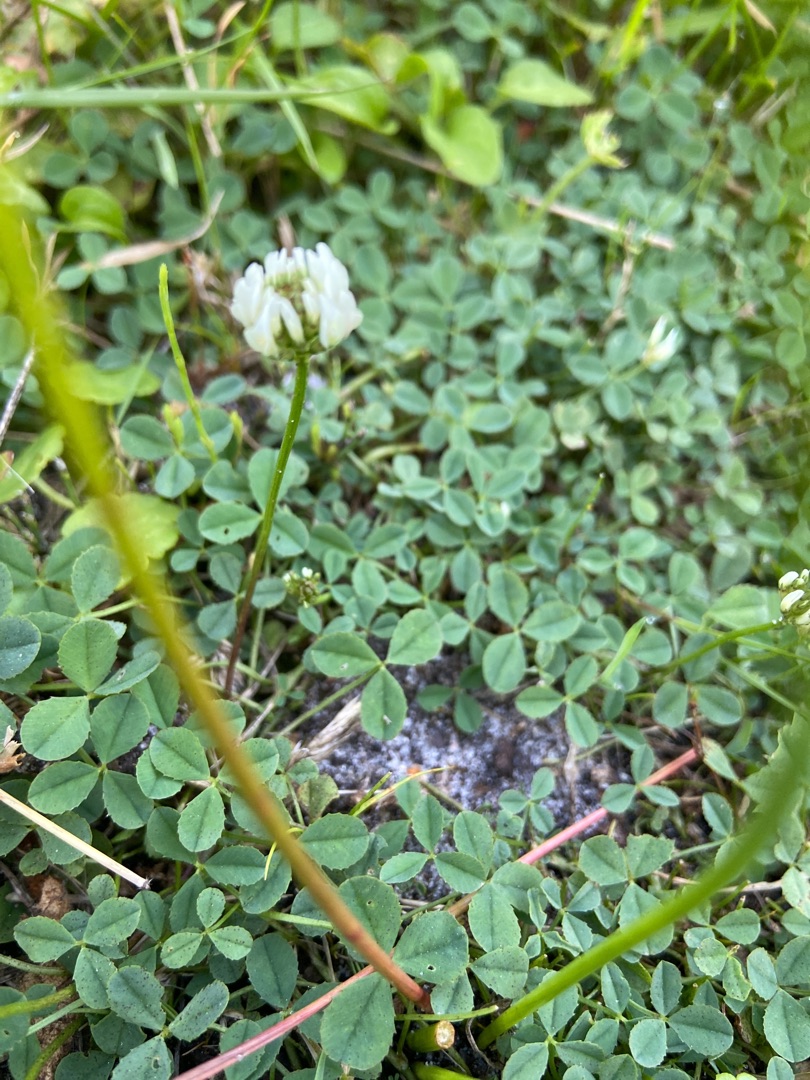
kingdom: Plantae
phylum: Tracheophyta
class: Magnoliopsida
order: Fabales
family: Fabaceae
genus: Trifolium
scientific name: Trifolium repens
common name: Hvid-kløver
